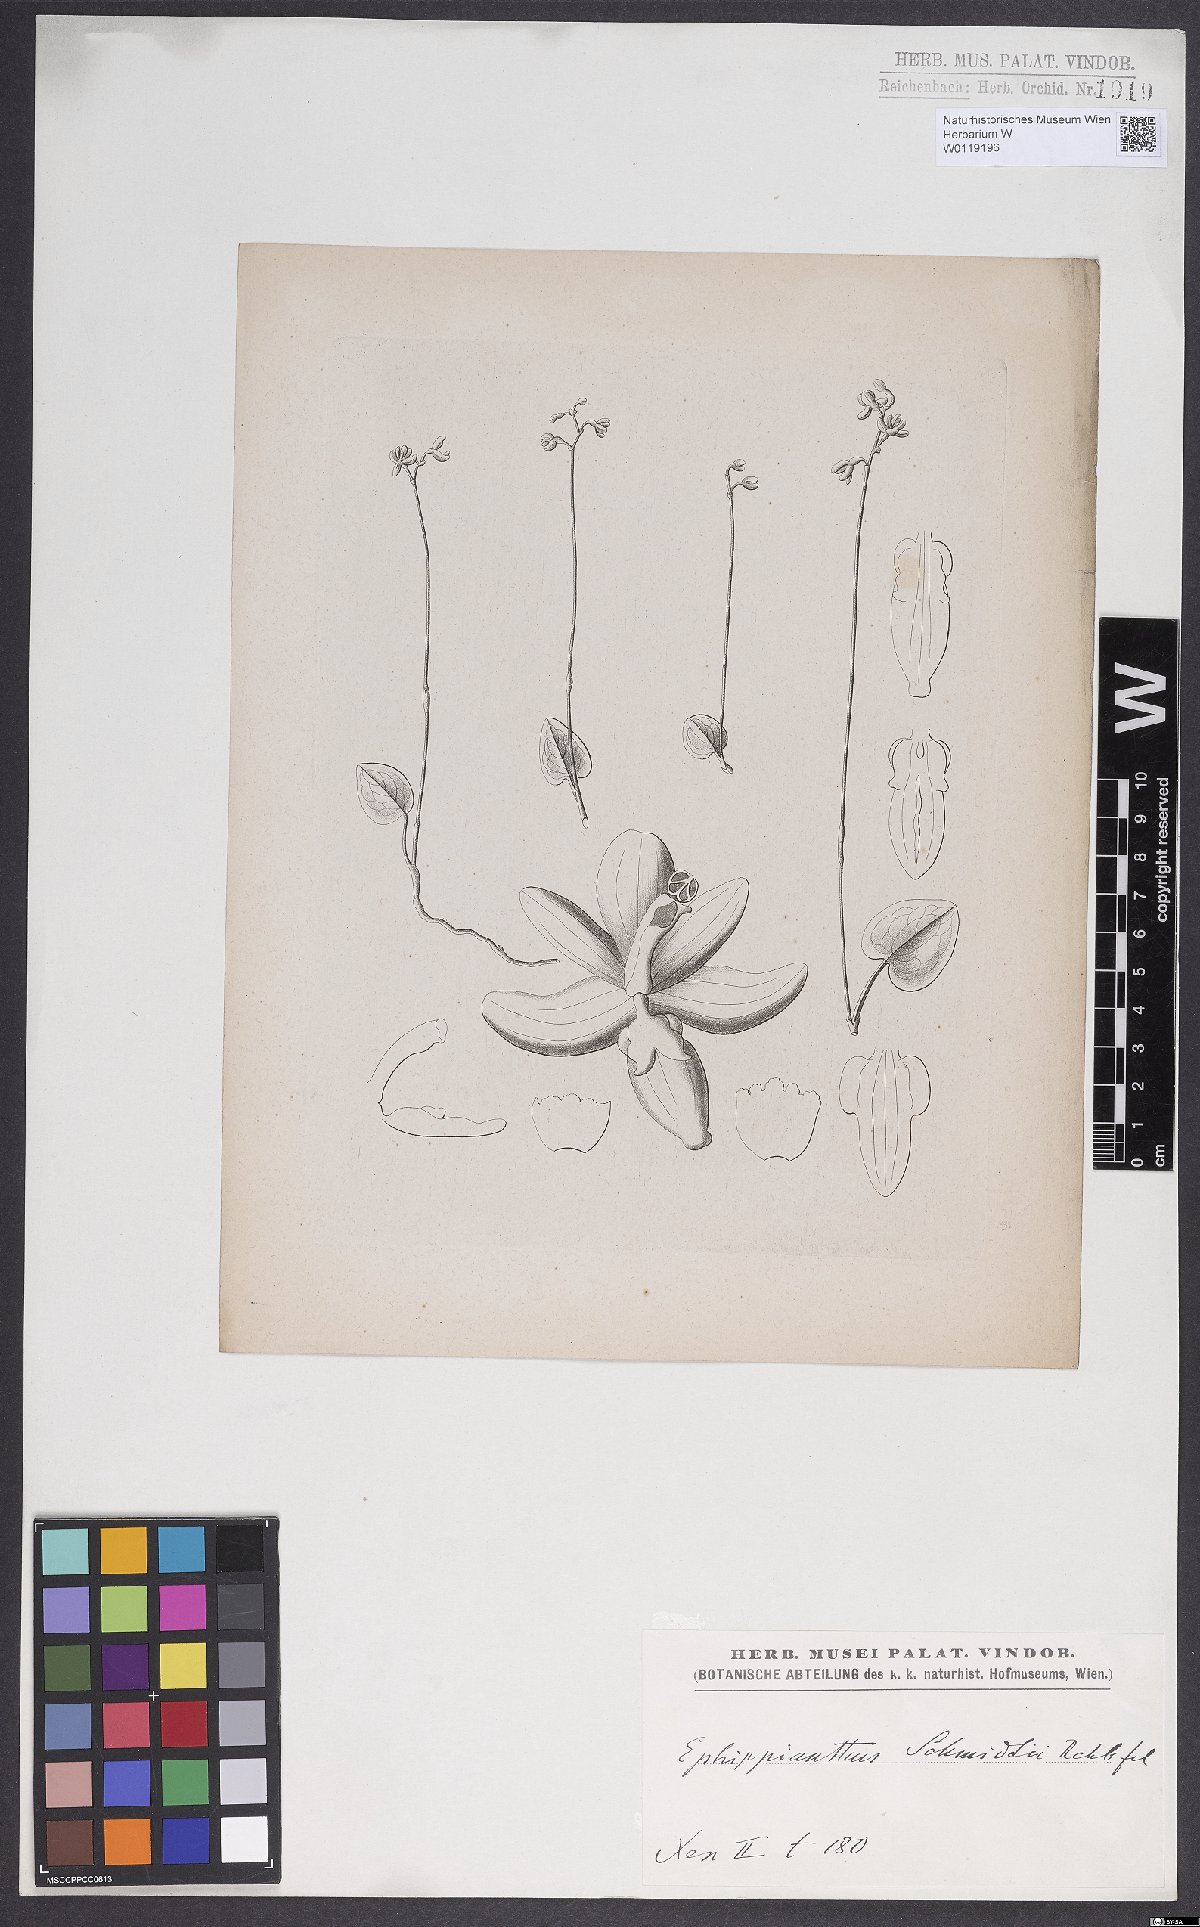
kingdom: Plantae
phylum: Tracheophyta
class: Liliopsida
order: Asparagales
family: Orchidaceae
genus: Ephippianthus
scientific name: Ephippianthus sachalinensis
